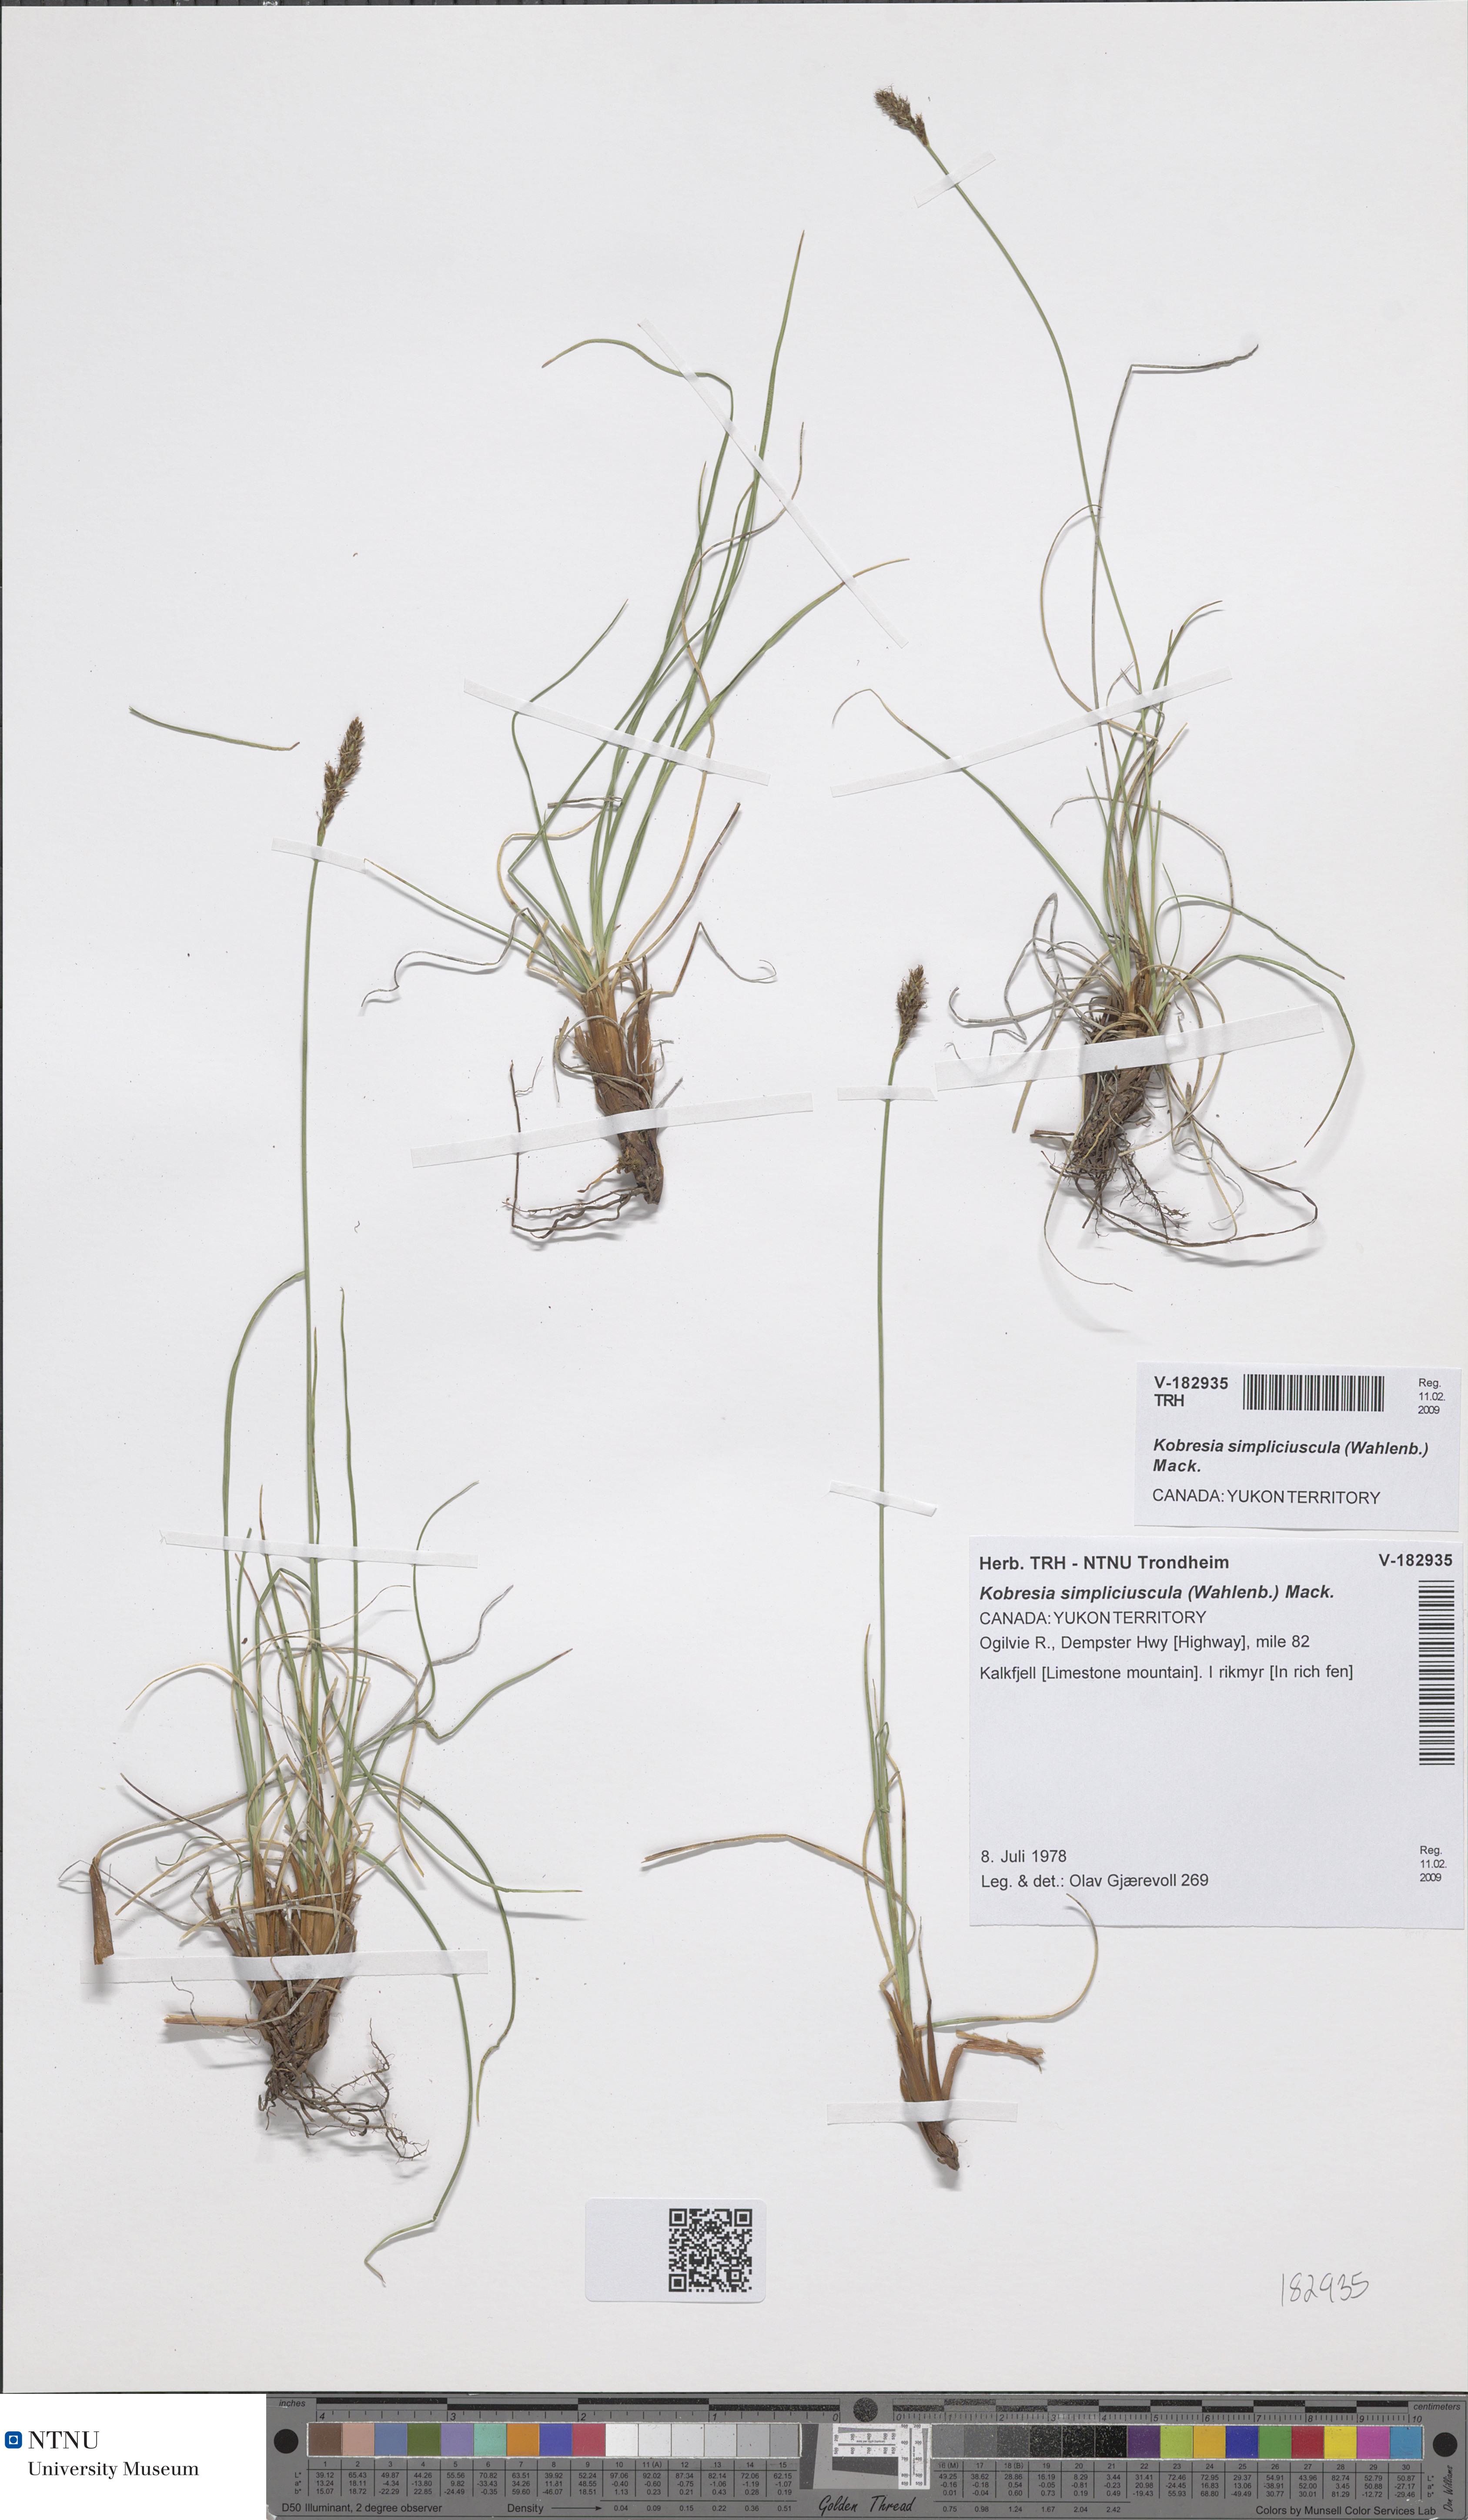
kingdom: Plantae
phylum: Tracheophyta
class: Liliopsida
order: Poales
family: Cyperaceae
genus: Carex
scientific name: Carex simpliciuscula
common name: Simple bog sedge
